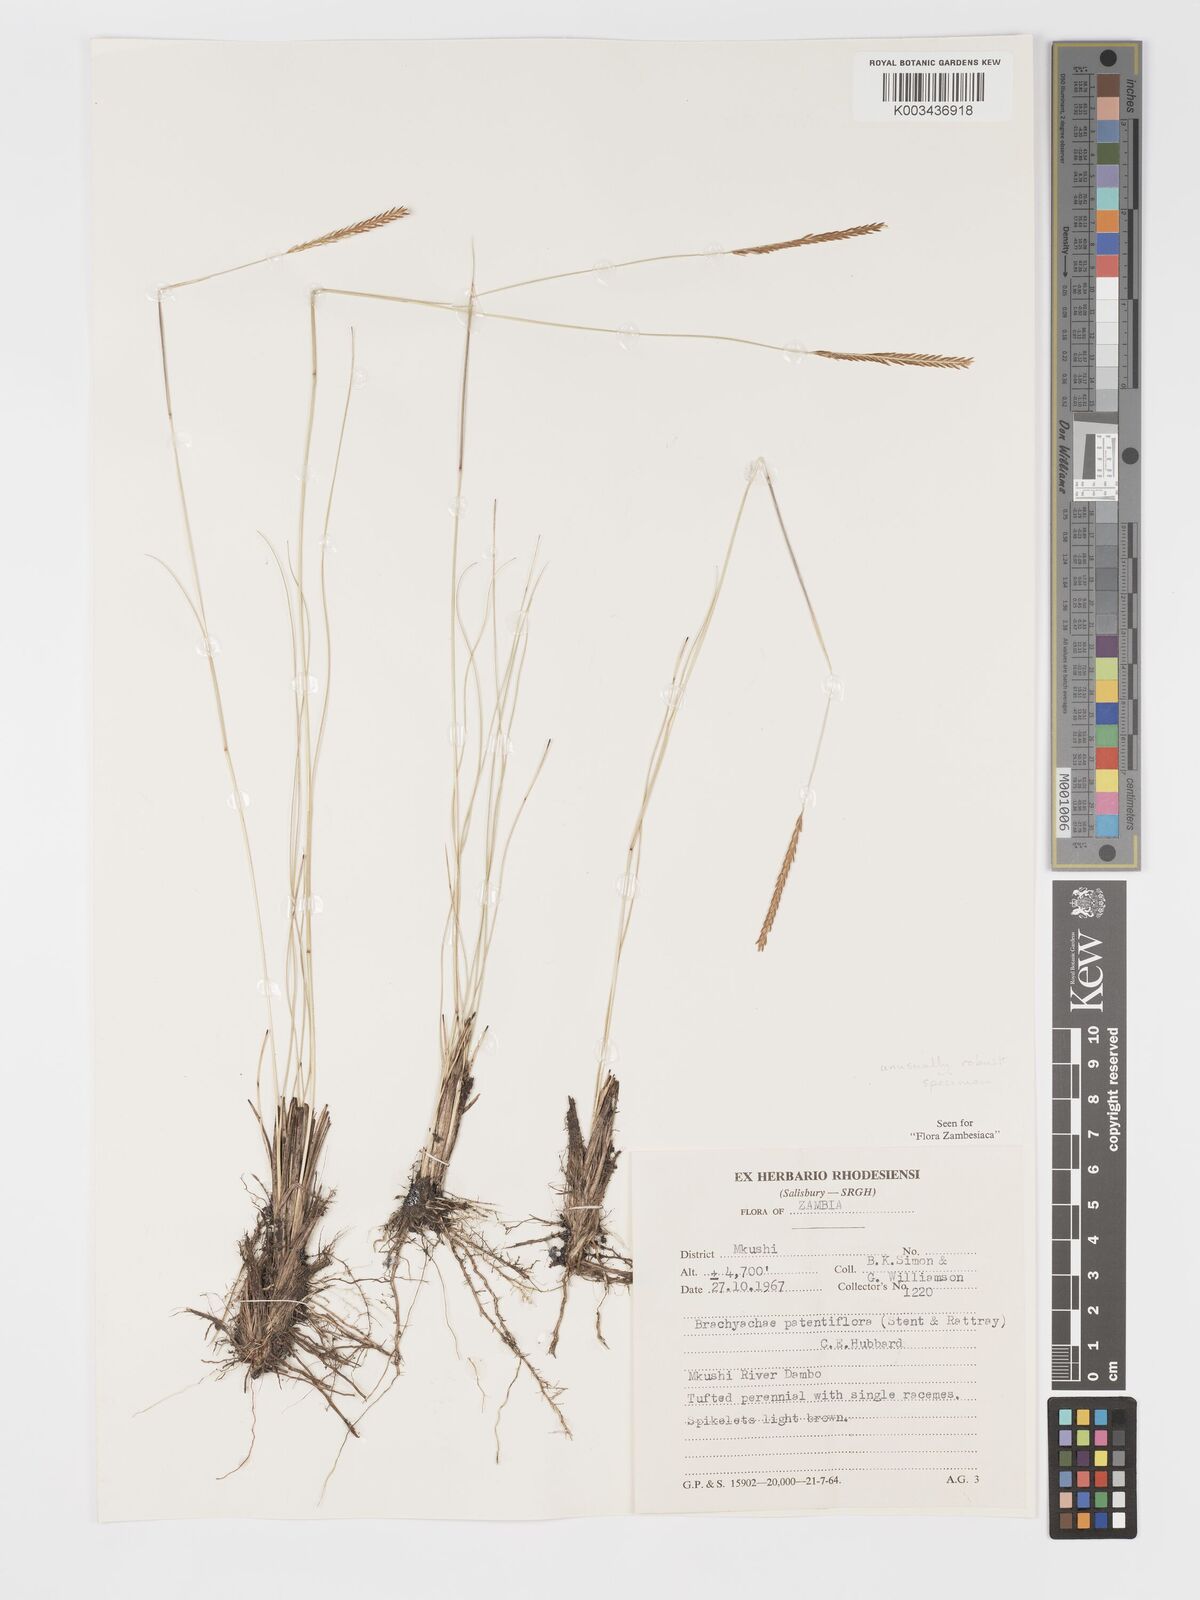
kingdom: Plantae
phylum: Tracheophyta
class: Liliopsida
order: Poales
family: Poaceae
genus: Micrachne
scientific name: Micrachne fulva
